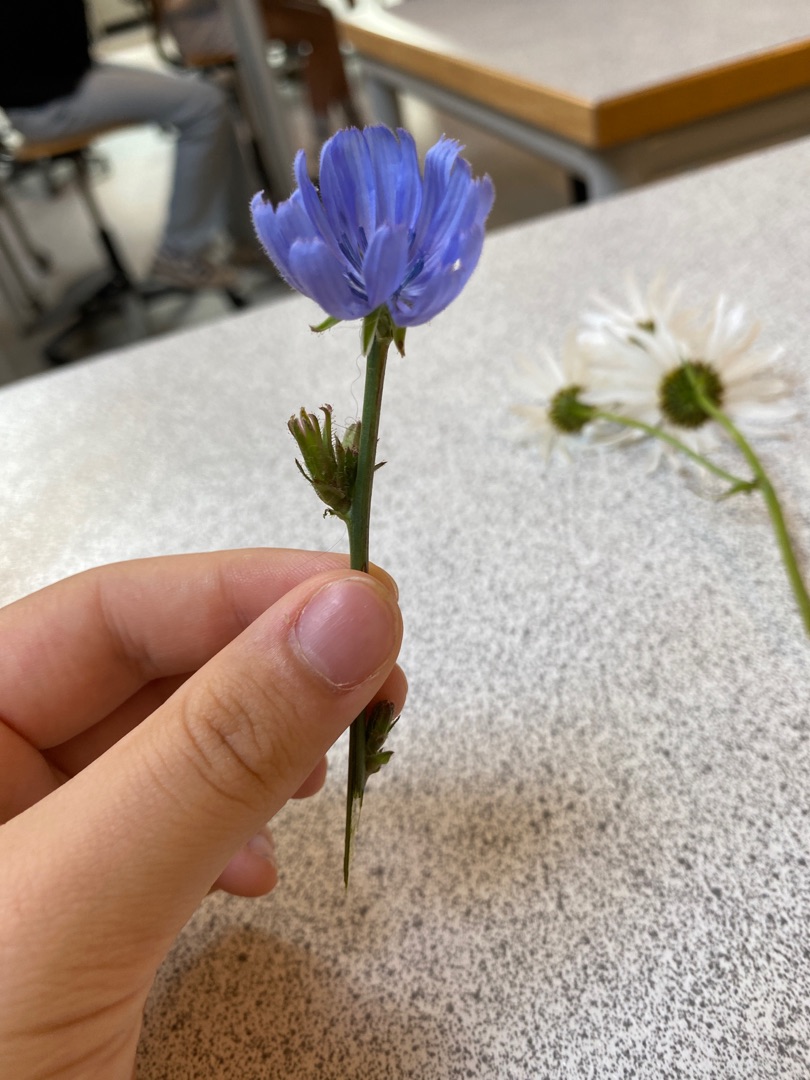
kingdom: Plantae
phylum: Tracheophyta
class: Magnoliopsida
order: Asterales
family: Asteraceae
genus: Cichorium
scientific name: Cichorium intybus
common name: Cikorie
